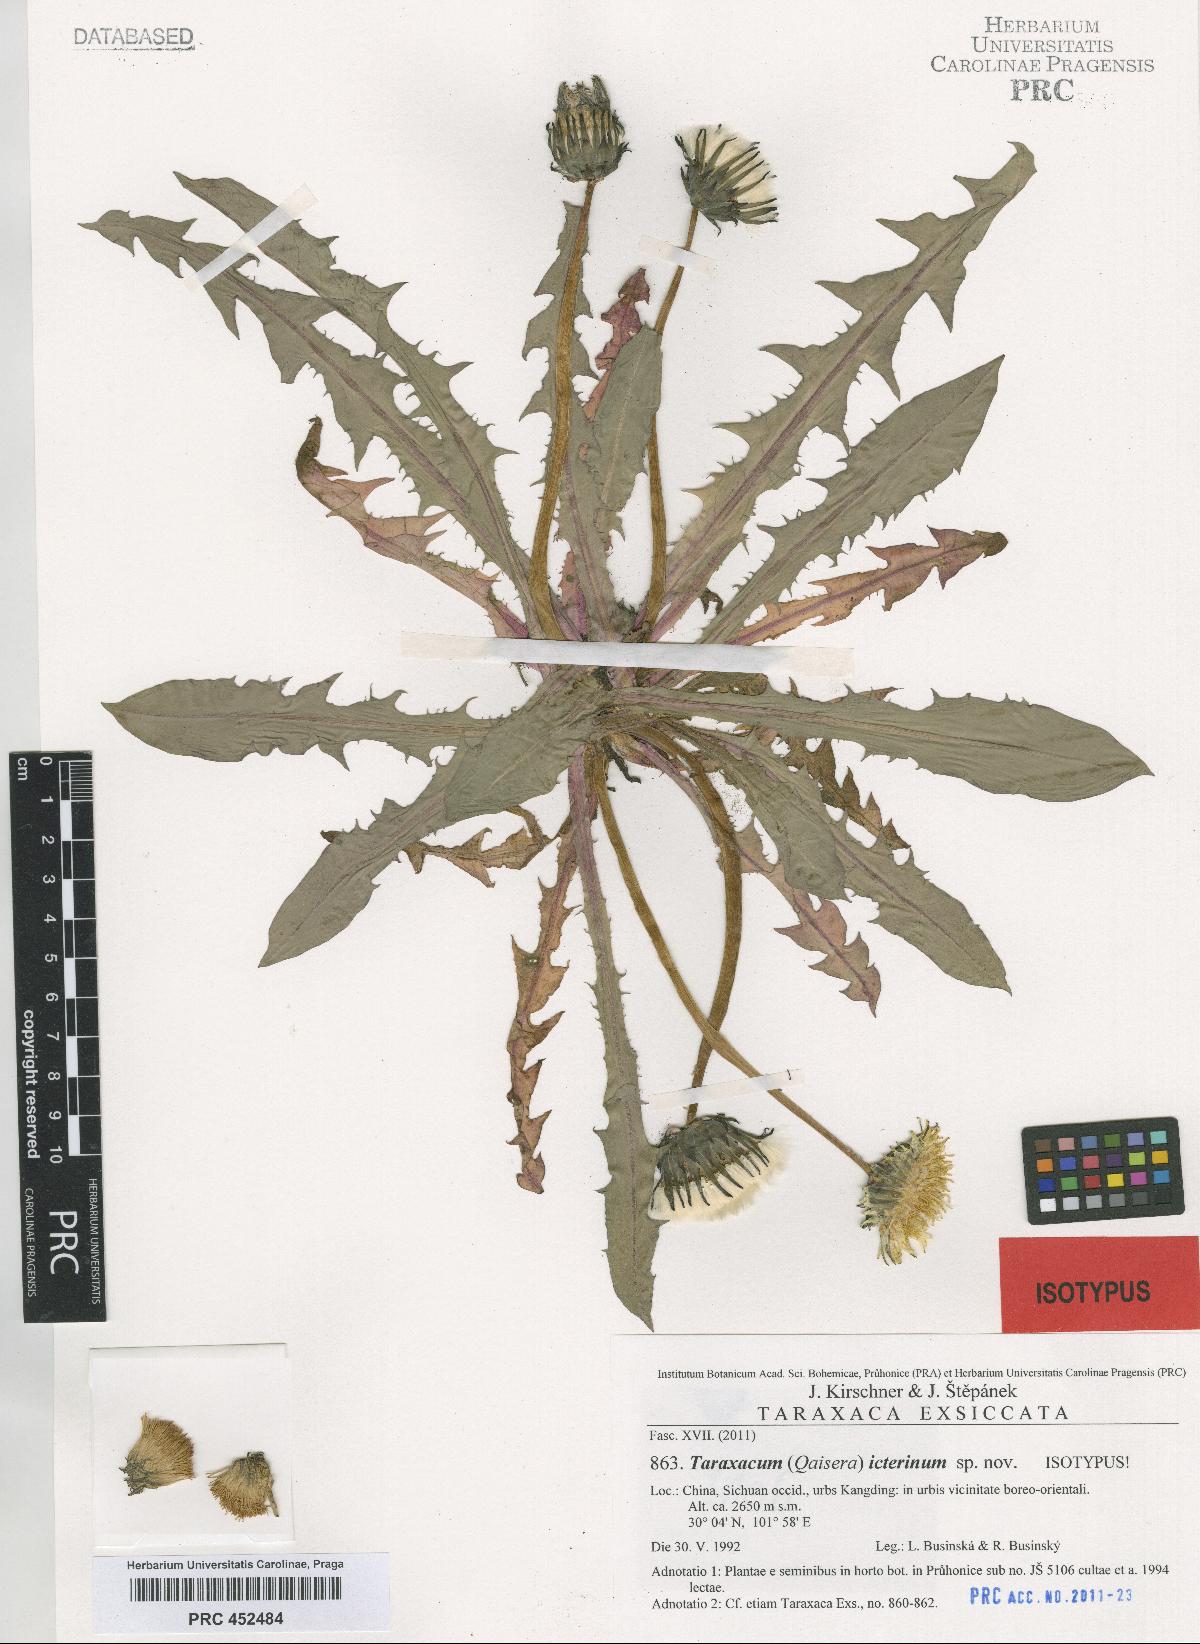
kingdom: Plantae
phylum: Tracheophyta
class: Magnoliopsida
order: Asterales
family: Asteraceae
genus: Taraxacum
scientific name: Taraxacum icterinum
